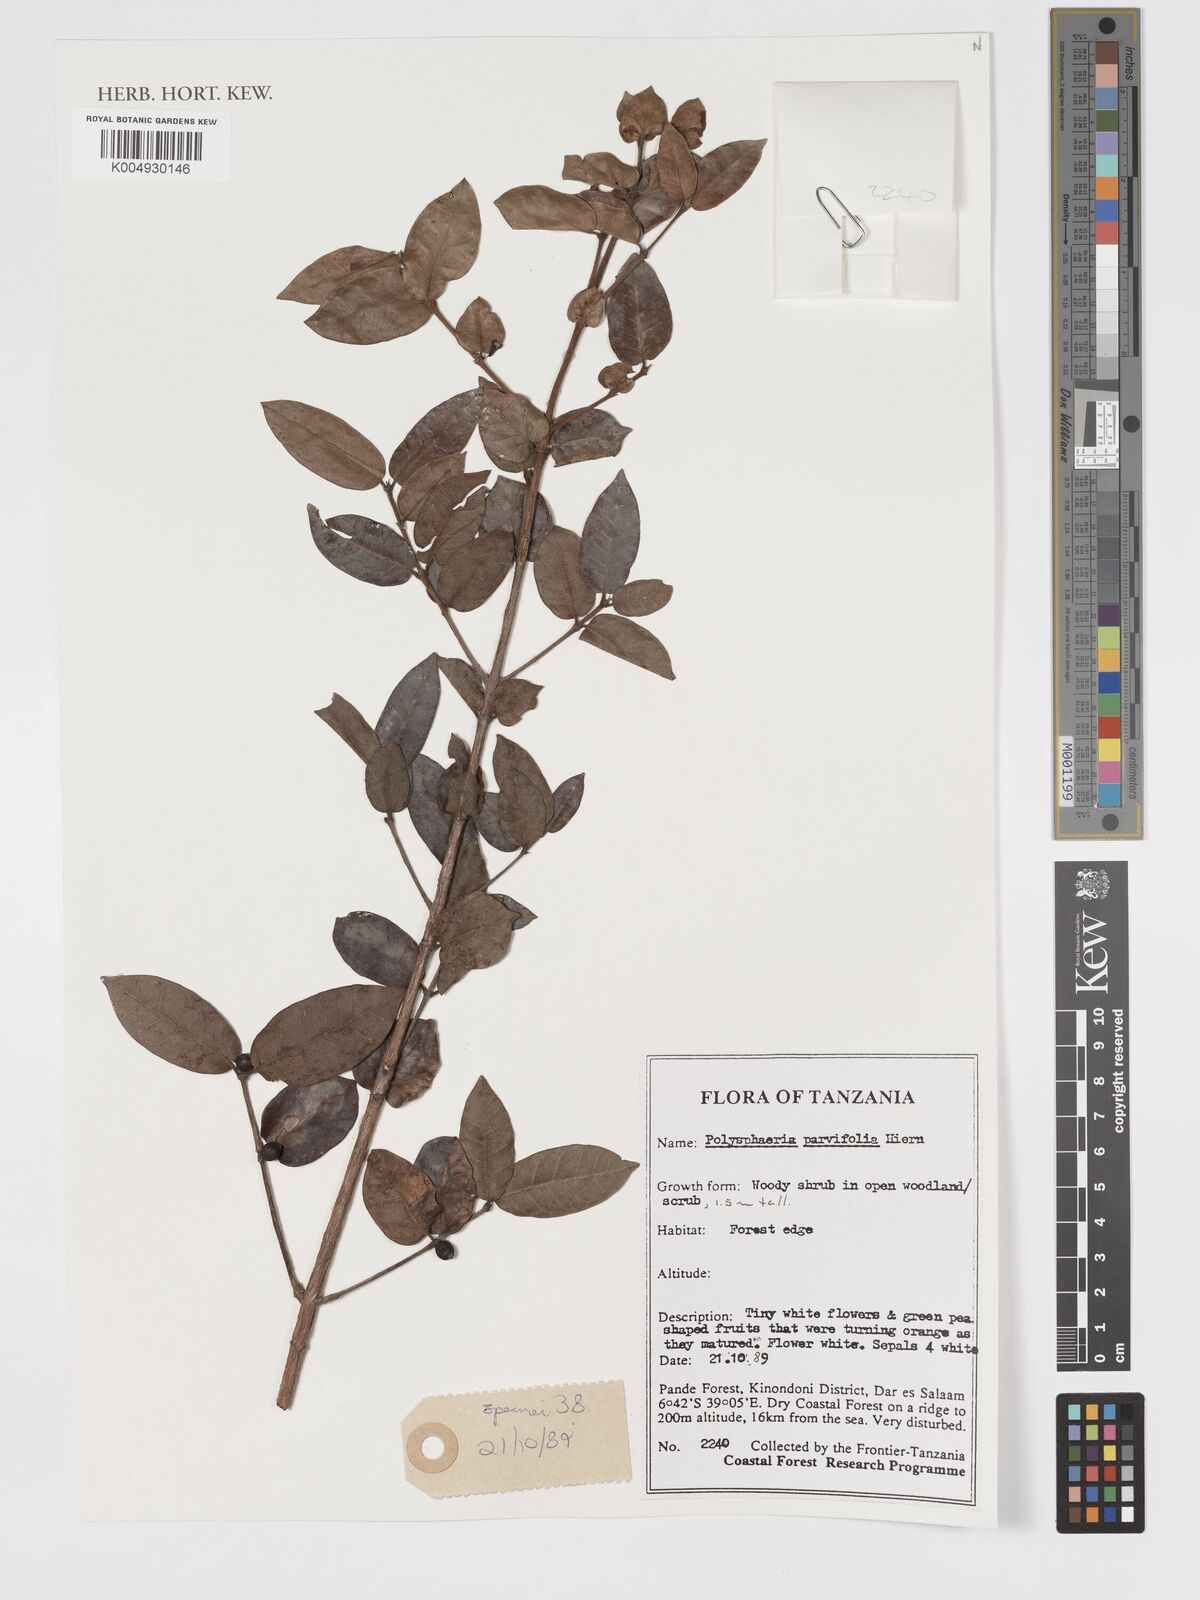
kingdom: Plantae
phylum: Tracheophyta
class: Magnoliopsida
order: Gentianales
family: Rubiaceae
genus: Polysphaeria
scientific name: Polysphaeria parvifolia
